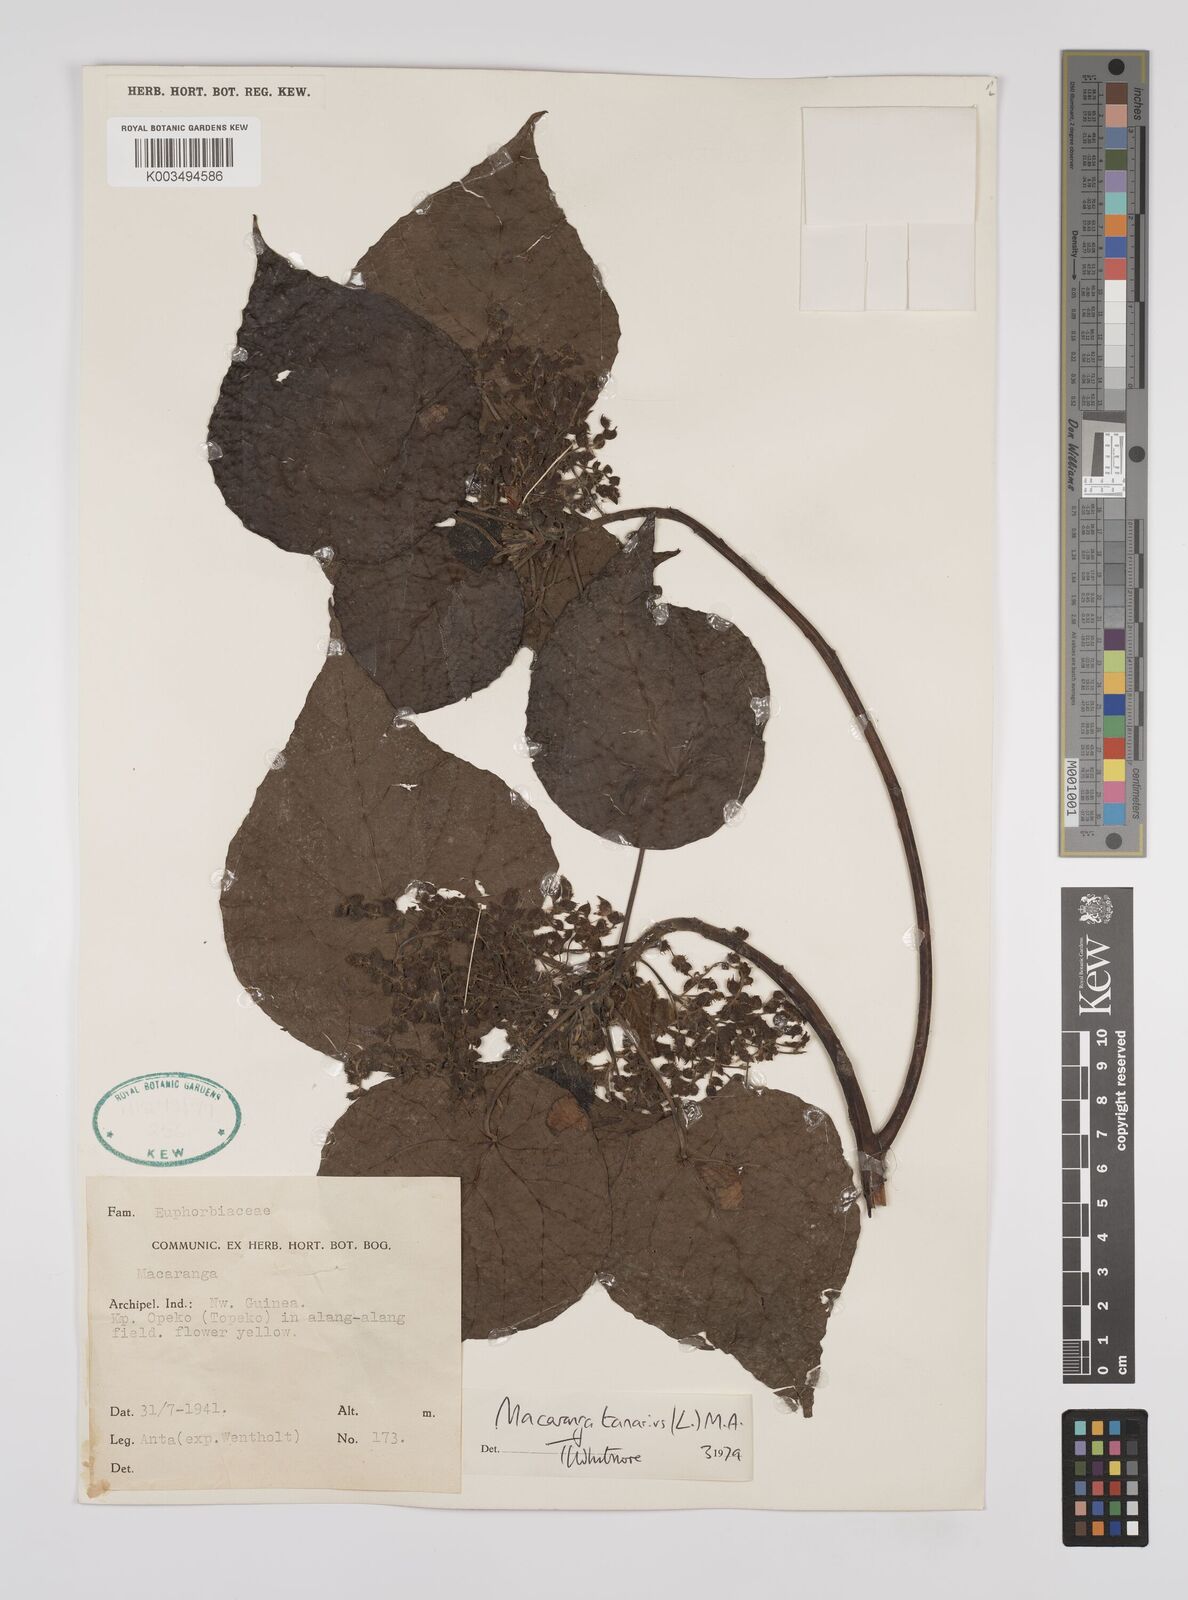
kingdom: Plantae
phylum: Tracheophyta
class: Magnoliopsida
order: Malpighiales
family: Euphorbiaceae
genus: Macaranga
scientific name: Macaranga tanarius
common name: Parasol leaf tree
